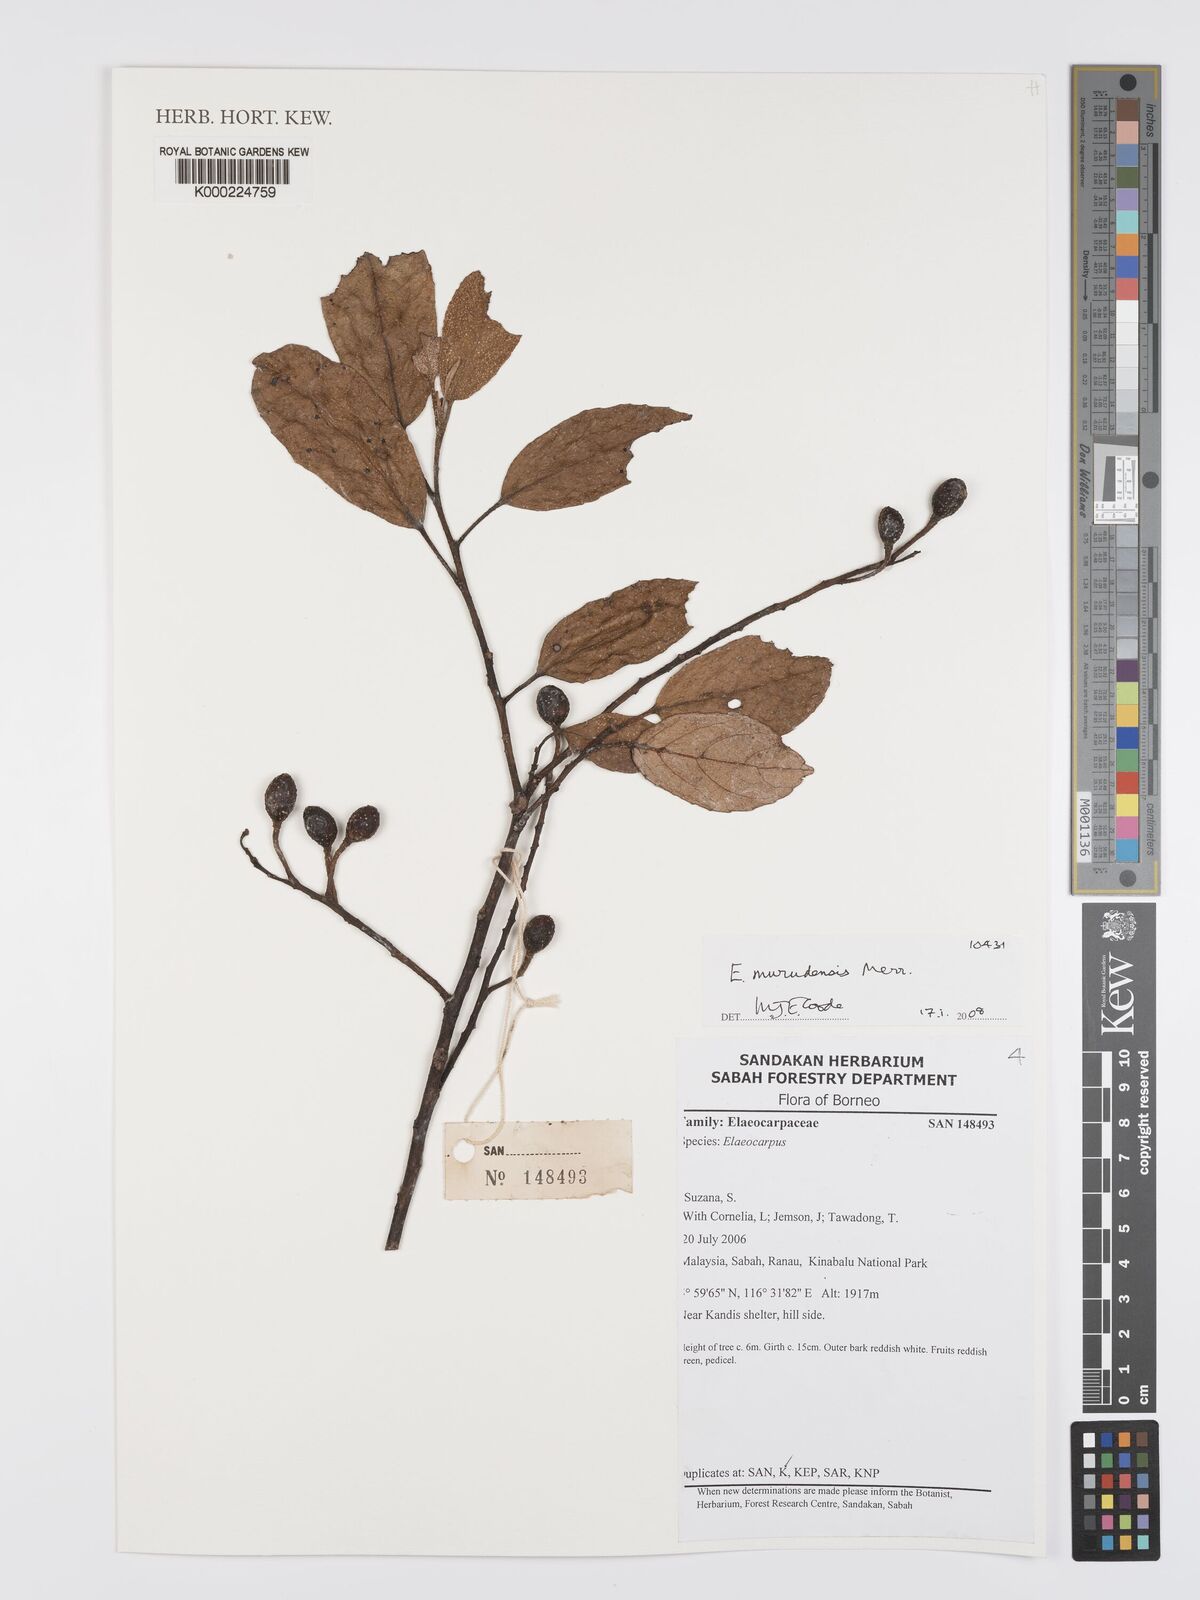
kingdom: Plantae
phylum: Tracheophyta
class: Magnoliopsida
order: Oxalidales
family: Elaeocarpaceae
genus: Elaeocarpus
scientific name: Elaeocarpus murudensis
